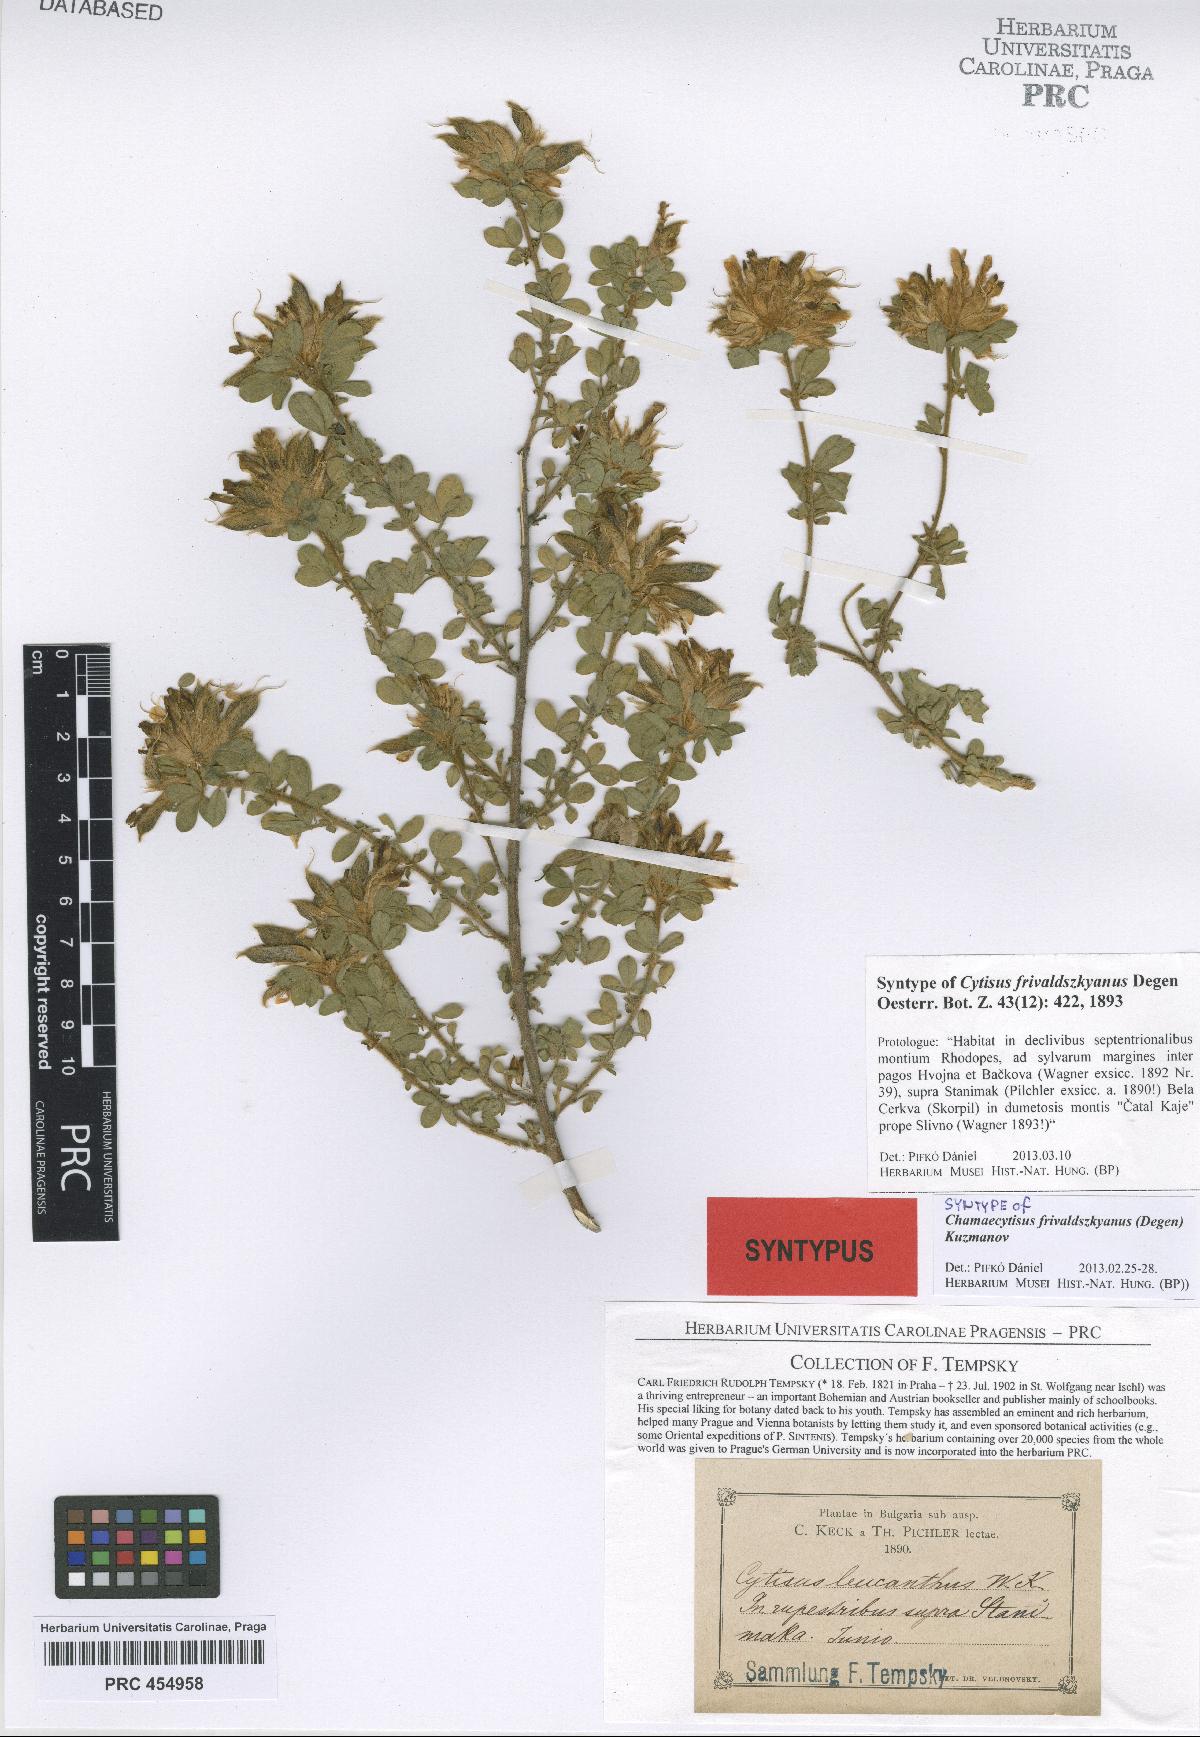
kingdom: Plantae
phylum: Tracheophyta
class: Magnoliopsida
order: Fabales
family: Fabaceae
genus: Chamaecytisus
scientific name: Chamaecytisus frivaldszkyanus
